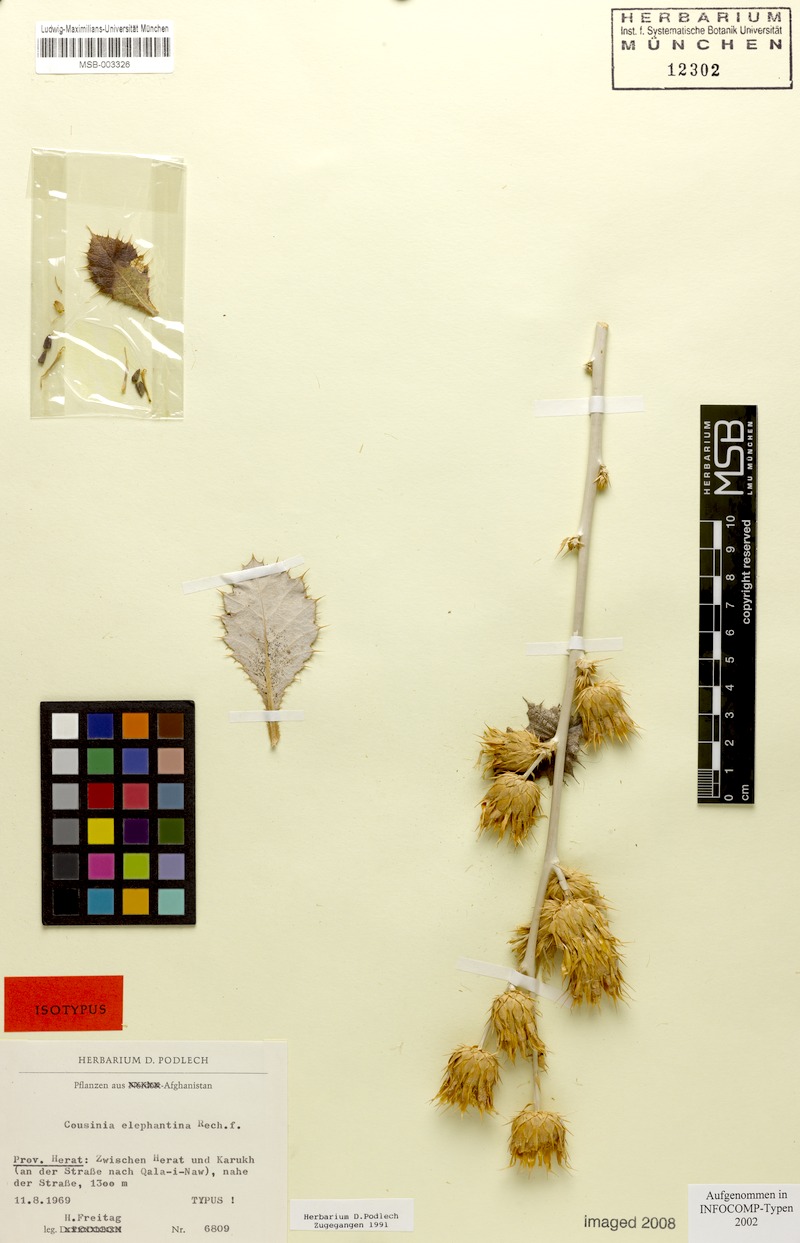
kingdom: Plantae
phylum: Tracheophyta
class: Magnoliopsida
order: Asterales
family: Asteraceae
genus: Cousinia
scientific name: Cousinia elephantina
